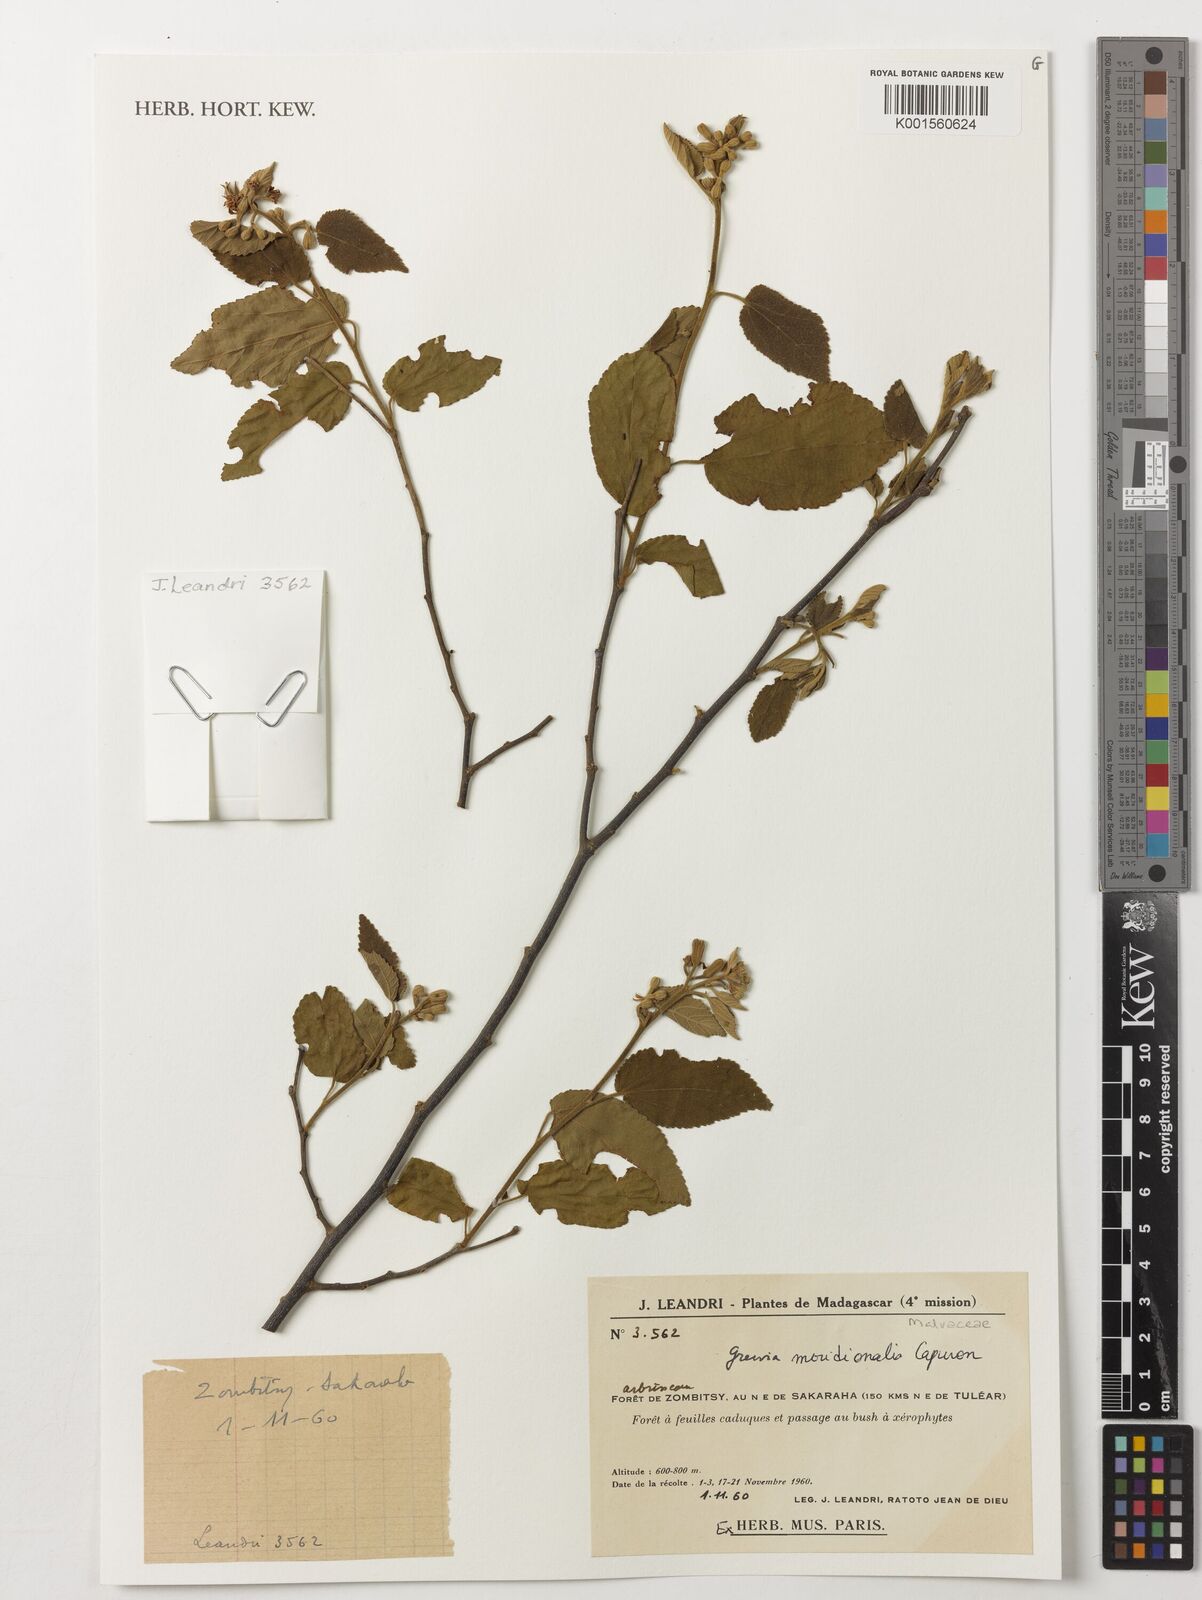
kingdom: Plantae
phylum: Tracheophyta
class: Magnoliopsida
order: Malvales
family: Malvaceae
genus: Grewia
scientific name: Grewia
